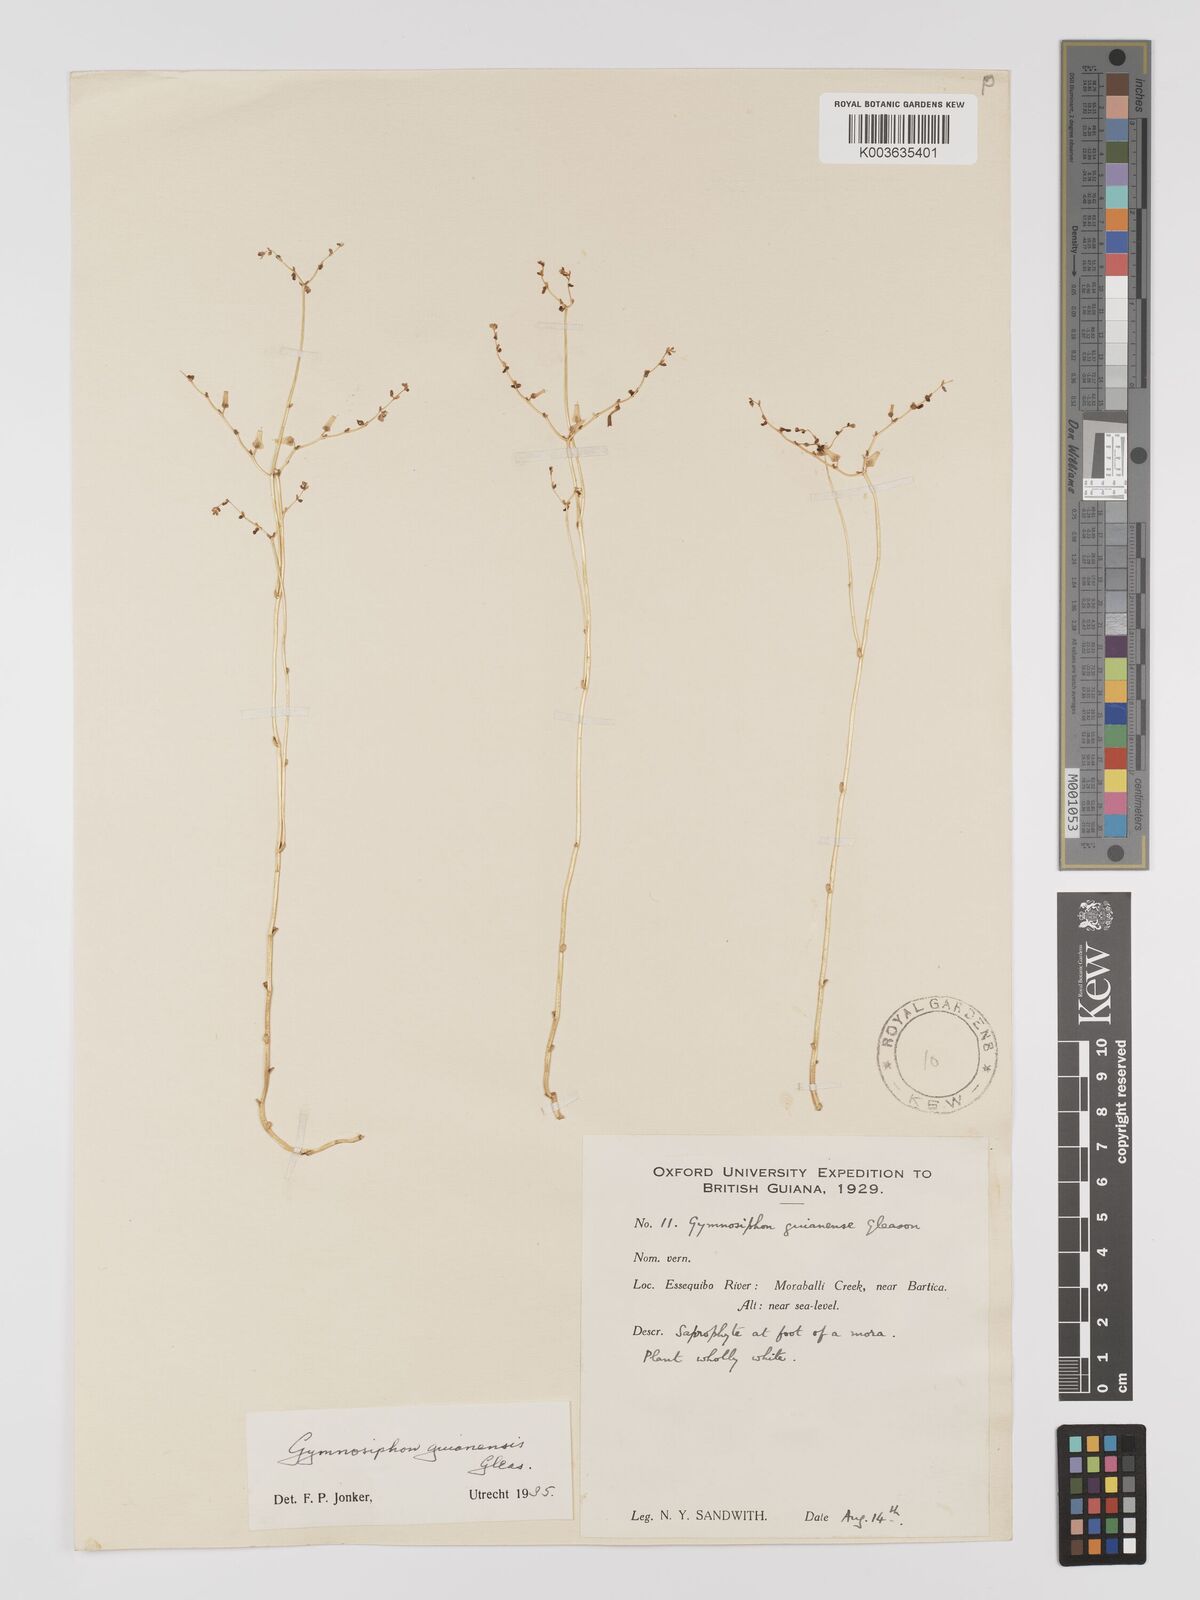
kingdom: Plantae
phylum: Tracheophyta
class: Liliopsida
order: Dioscoreales
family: Burmanniaceae
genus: Gymnosiphon
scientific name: Gymnosiphon guianensis
